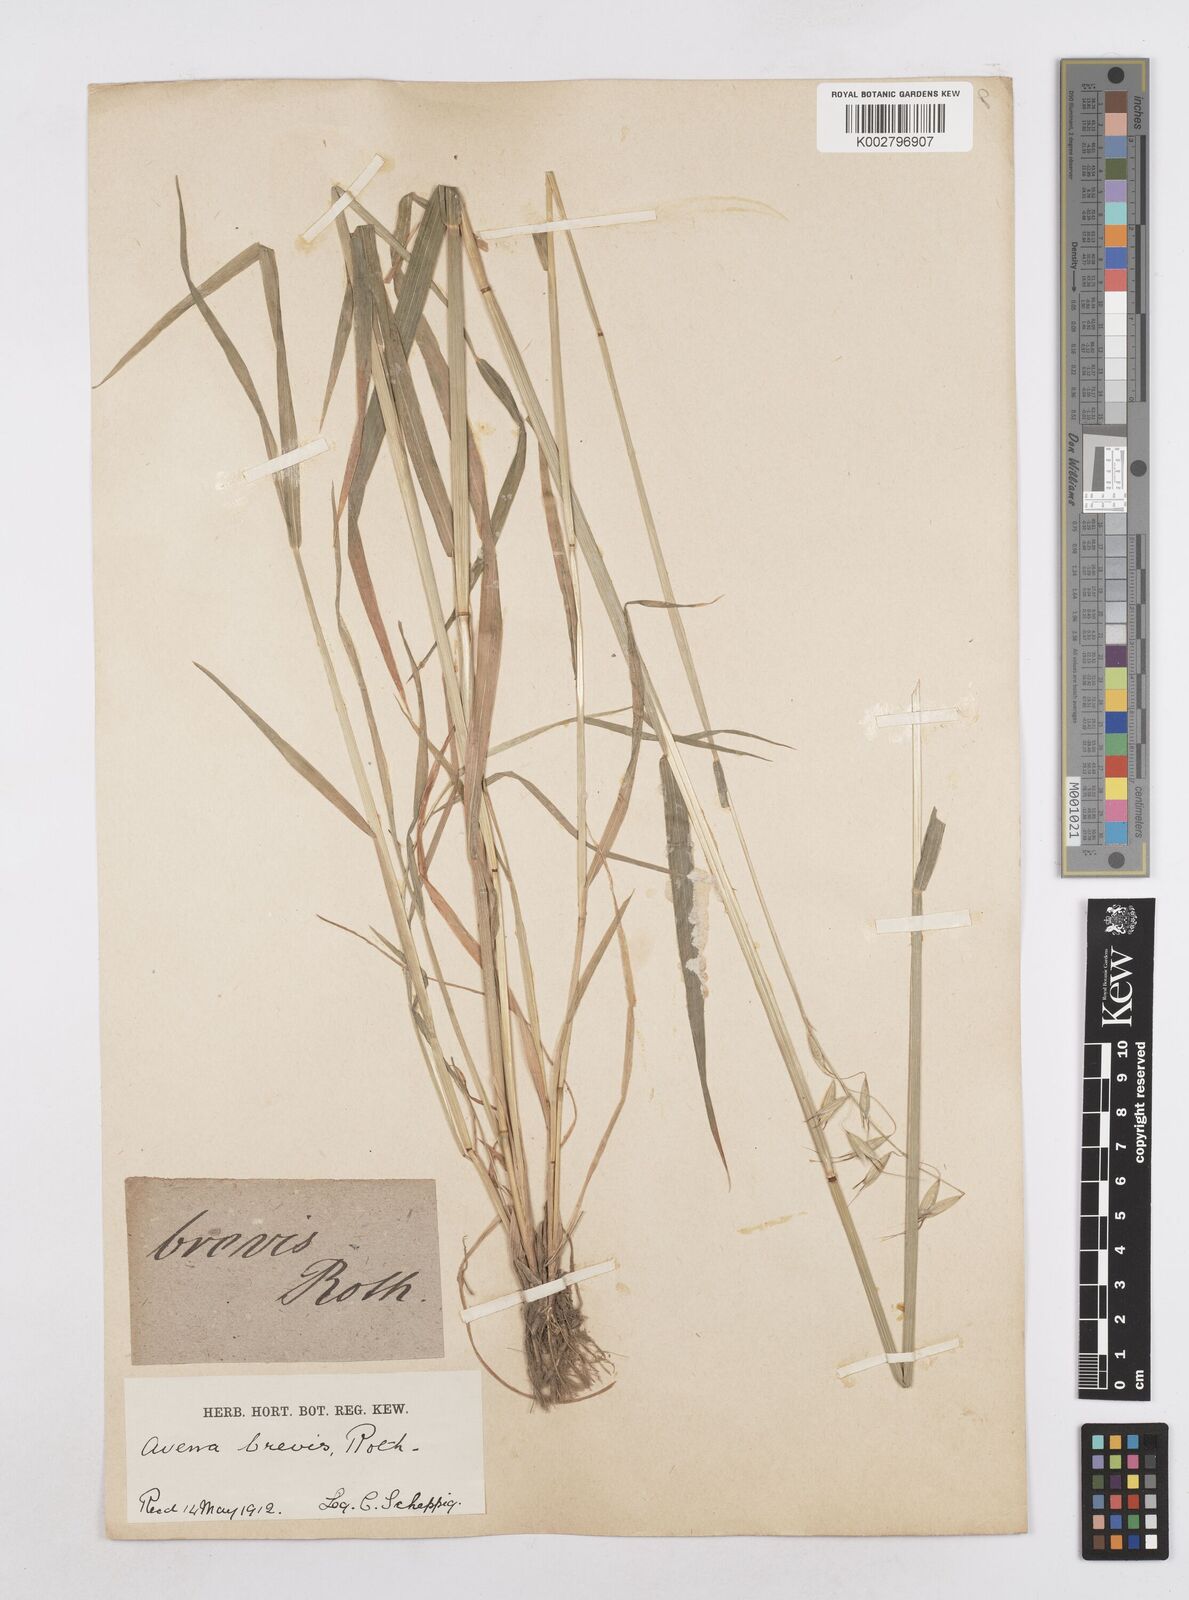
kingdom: Plantae
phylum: Tracheophyta
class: Liliopsida
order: Poales
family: Poaceae
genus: Avena
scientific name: Avena brevis
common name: Short oat
